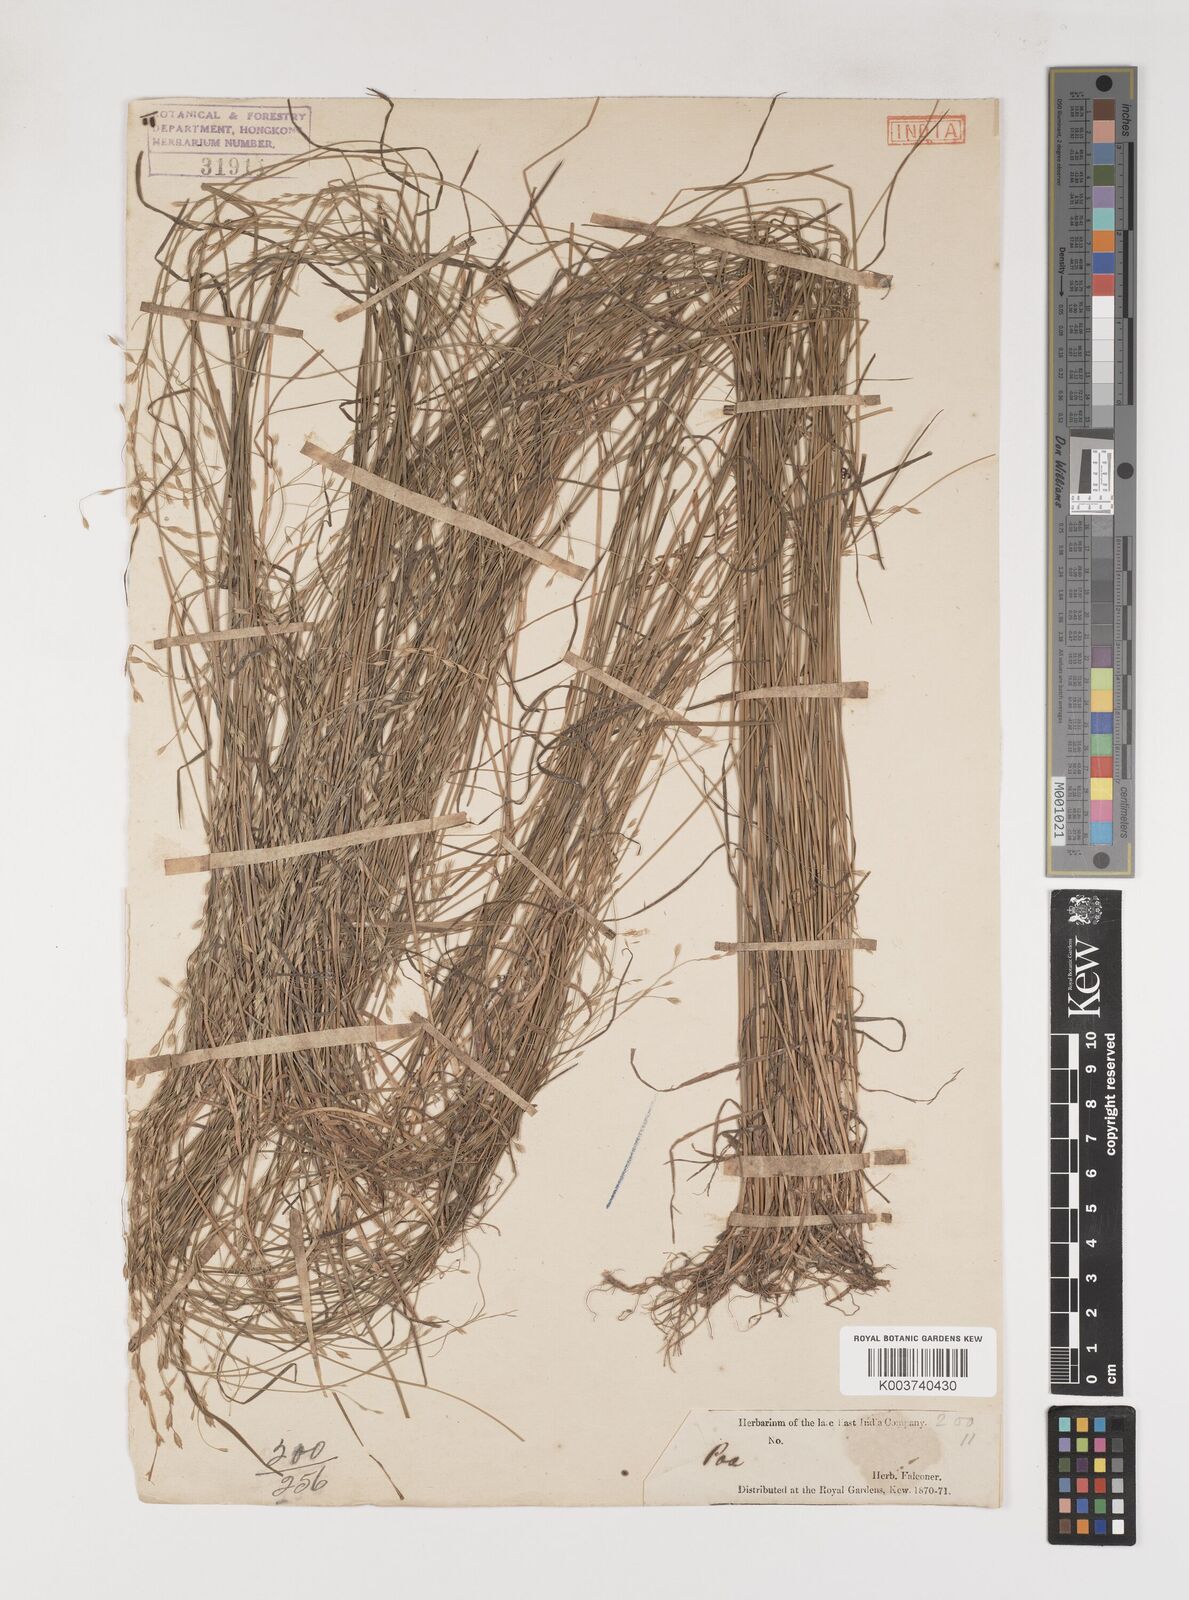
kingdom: Plantae
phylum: Tracheophyta
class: Liliopsida
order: Poales
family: Poaceae
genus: Poa
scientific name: Poa nemoralis
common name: Wood bluegrass
